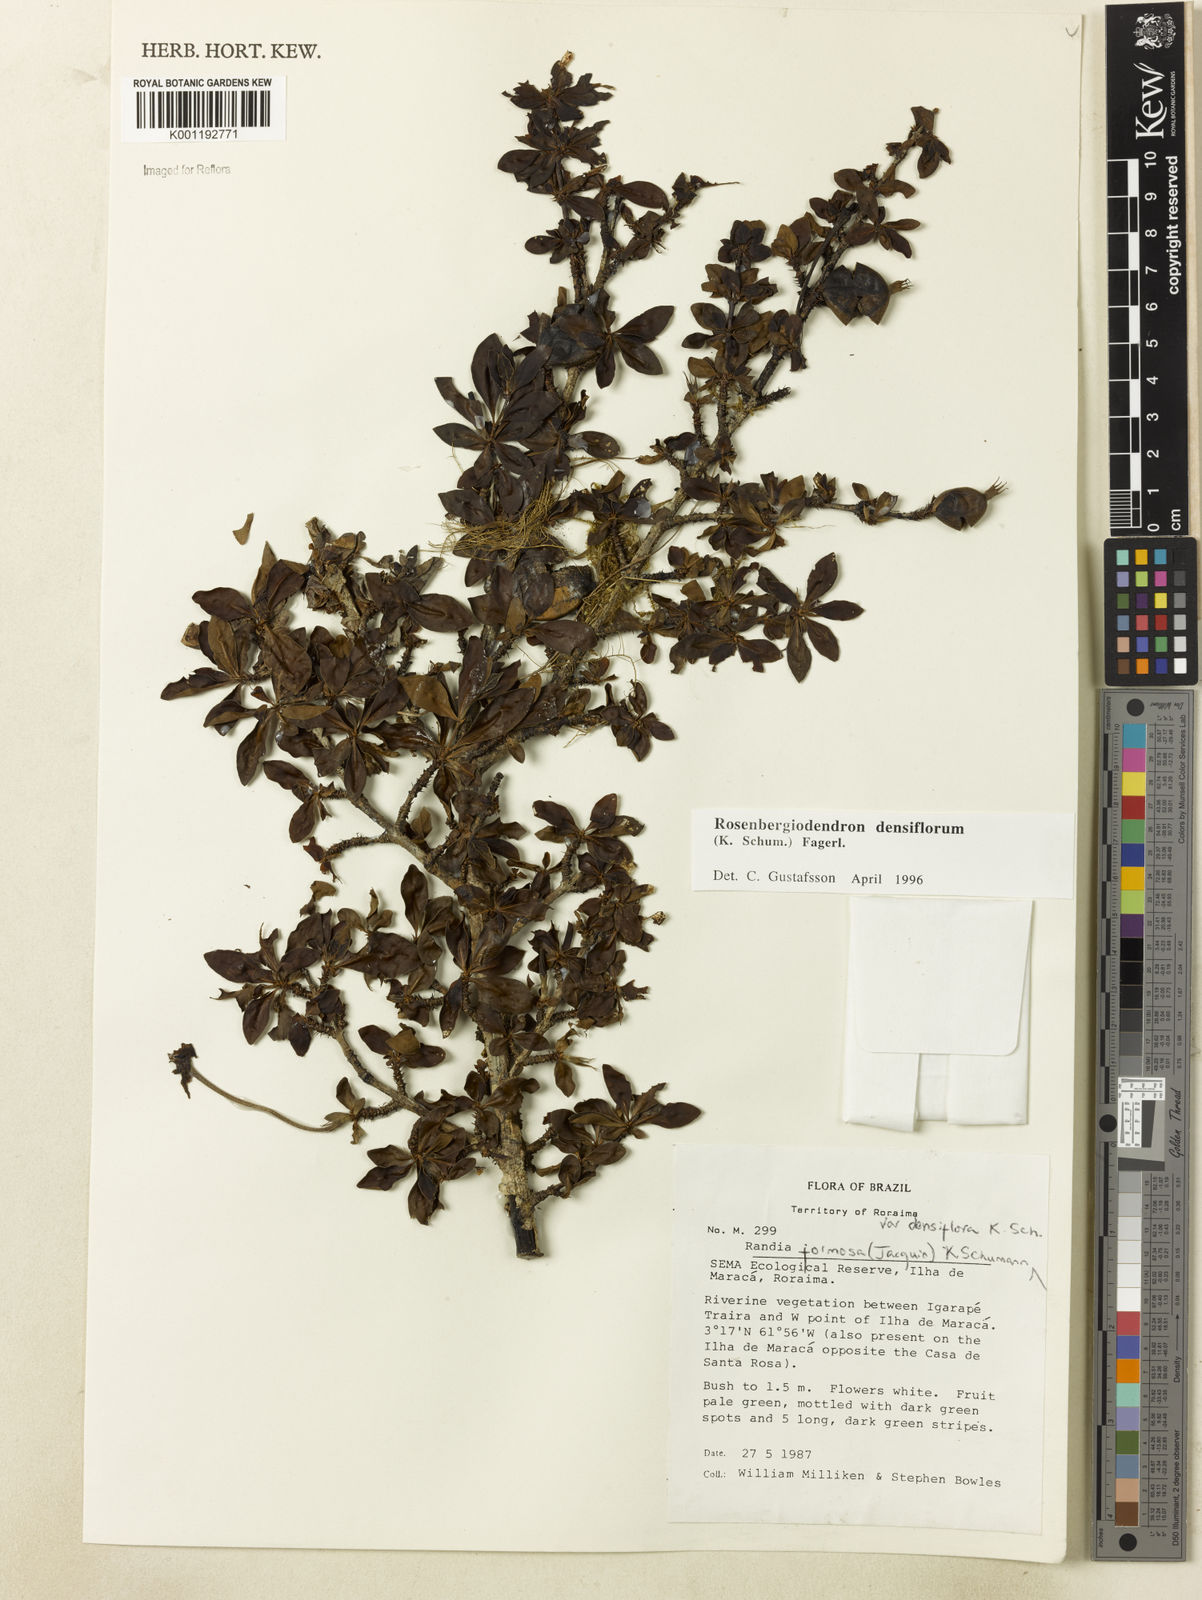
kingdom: Plantae
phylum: Tracheophyta
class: Magnoliopsida
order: Gentianales
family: Rubiaceae
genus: Rosenbergiodendron
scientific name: Rosenbergiodendron densiflorum
